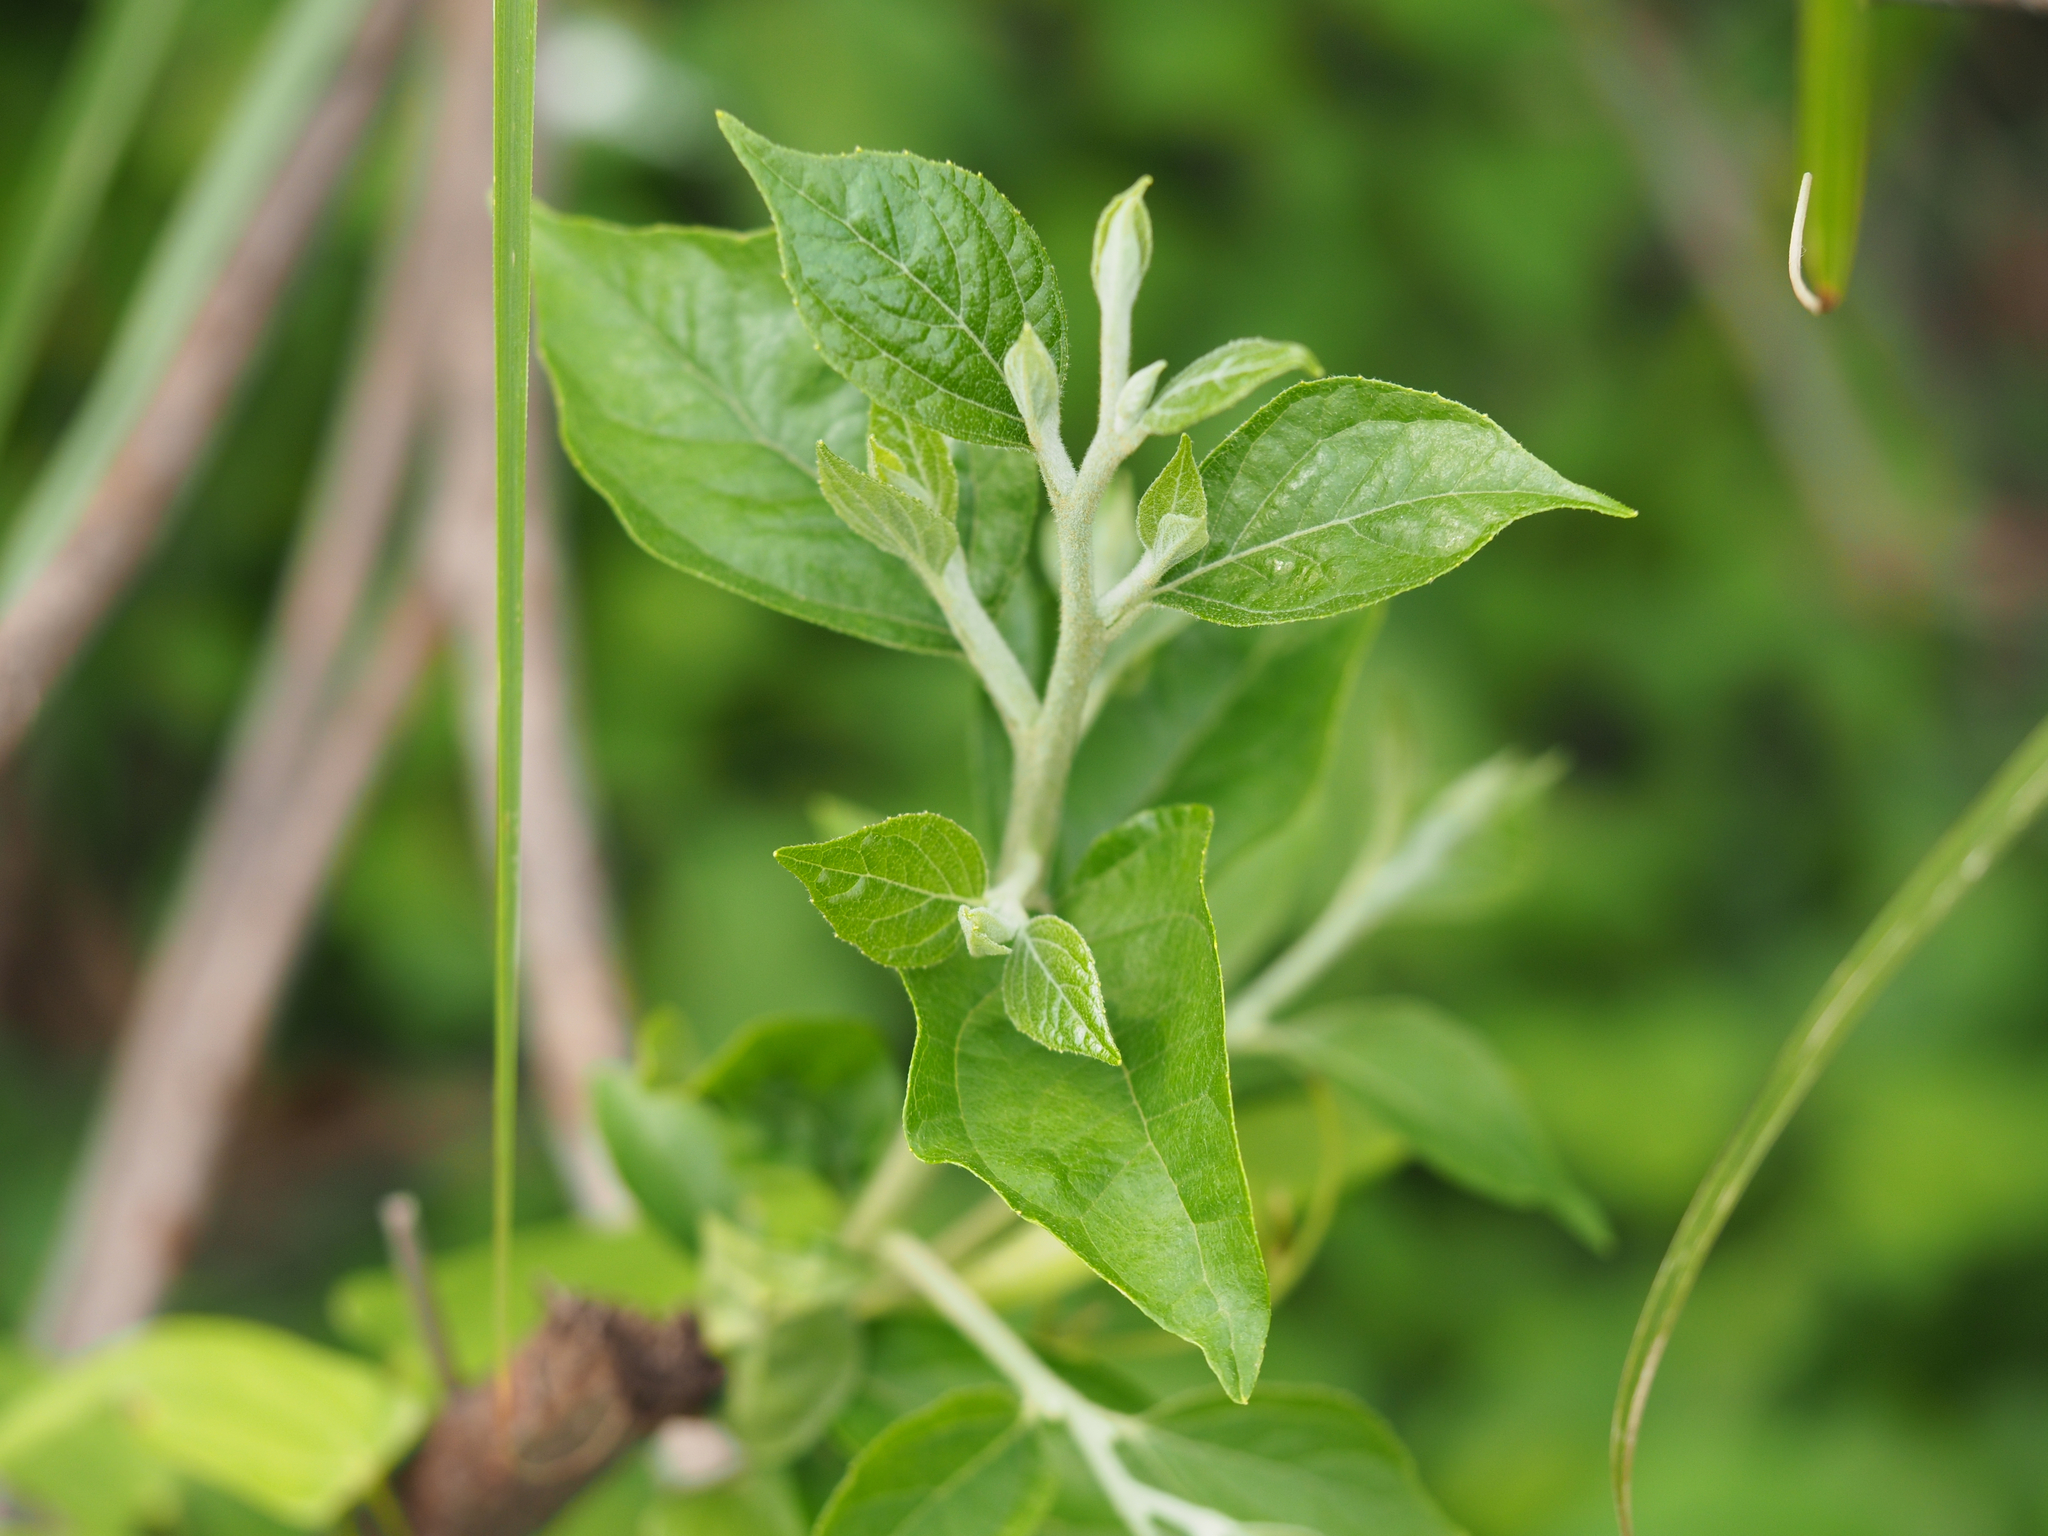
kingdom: Plantae
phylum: Tracheophyta
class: Magnoliopsida
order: Ericales
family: Symplocaceae
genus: Symplocos
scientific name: Symplocos paniculata
